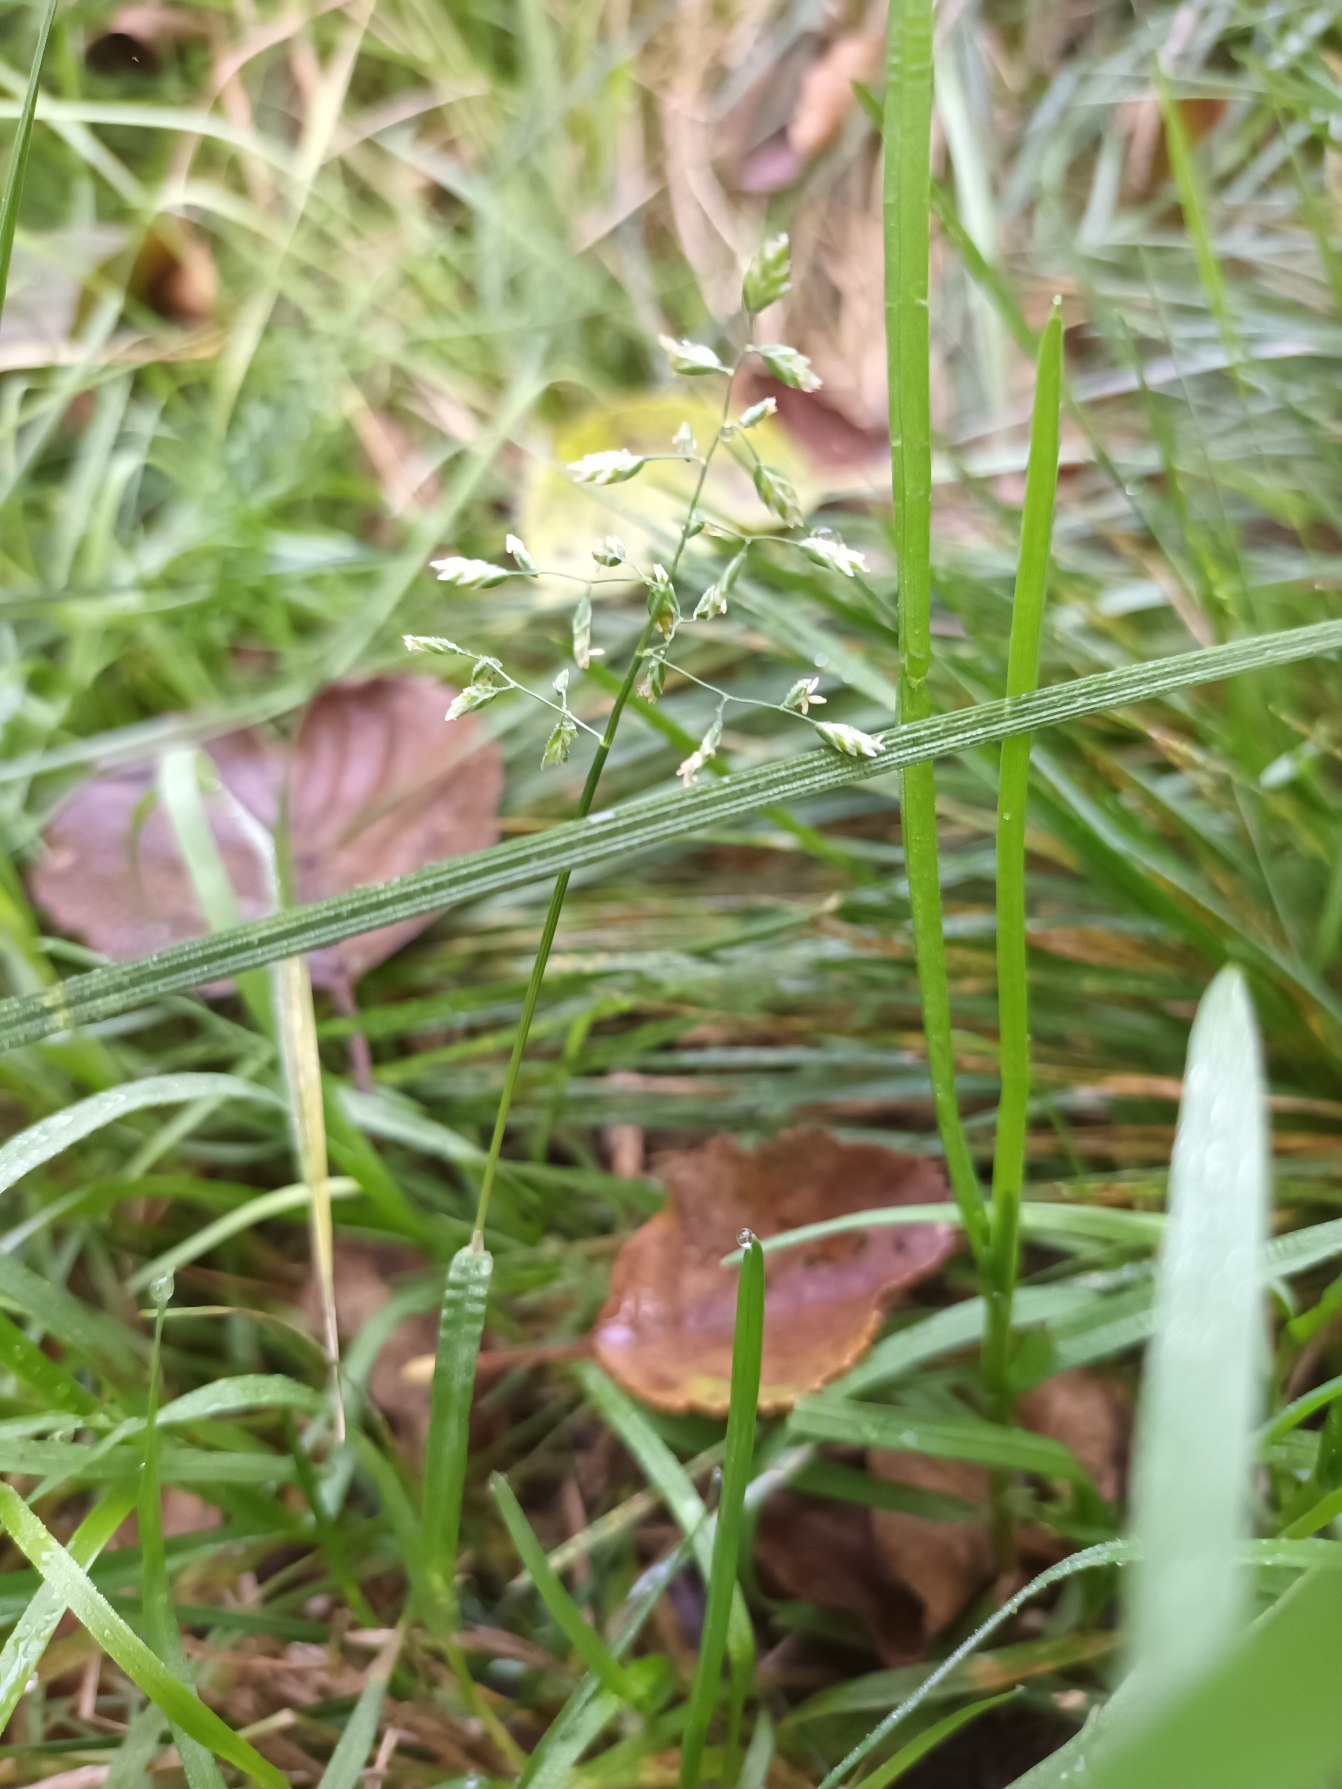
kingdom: Plantae
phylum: Tracheophyta
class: Liliopsida
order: Poales
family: Poaceae
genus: Poa
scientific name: Poa annua
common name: Enårig rapgræs
